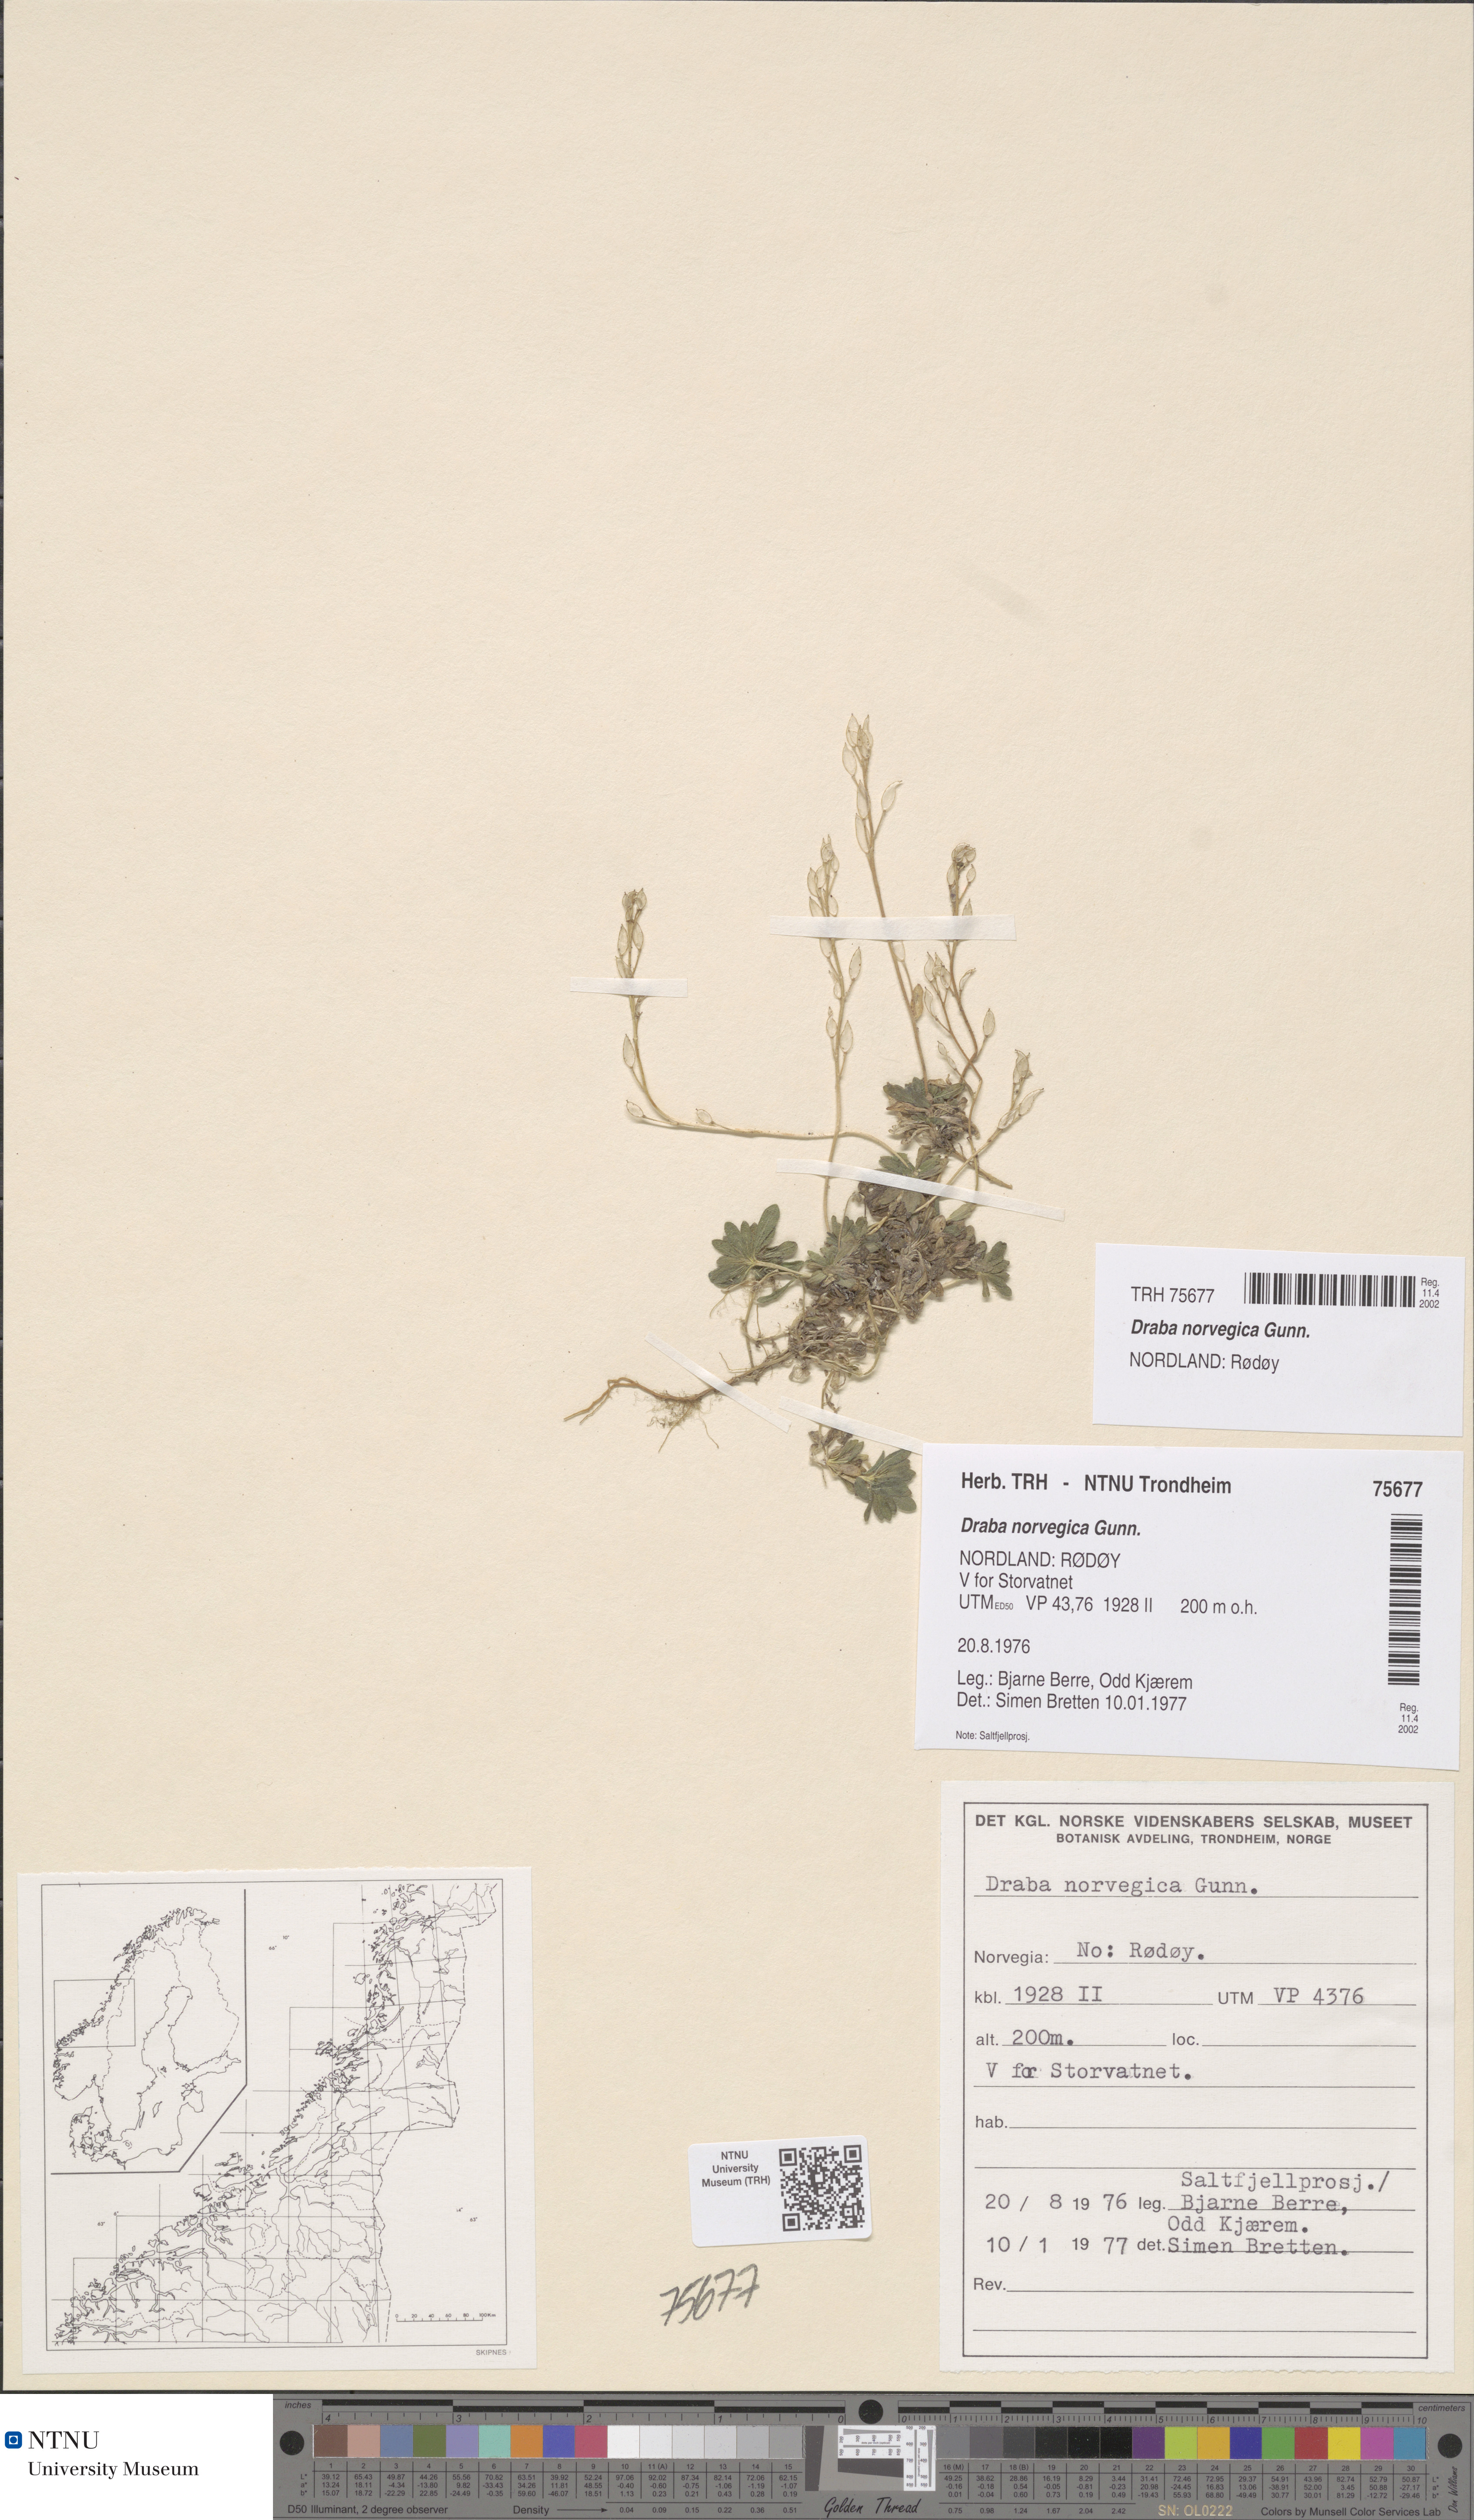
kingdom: Plantae
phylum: Tracheophyta
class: Magnoliopsida
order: Brassicales
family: Brassicaceae
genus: Draba
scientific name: Draba norvegica
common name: Rock whitlowgrass
